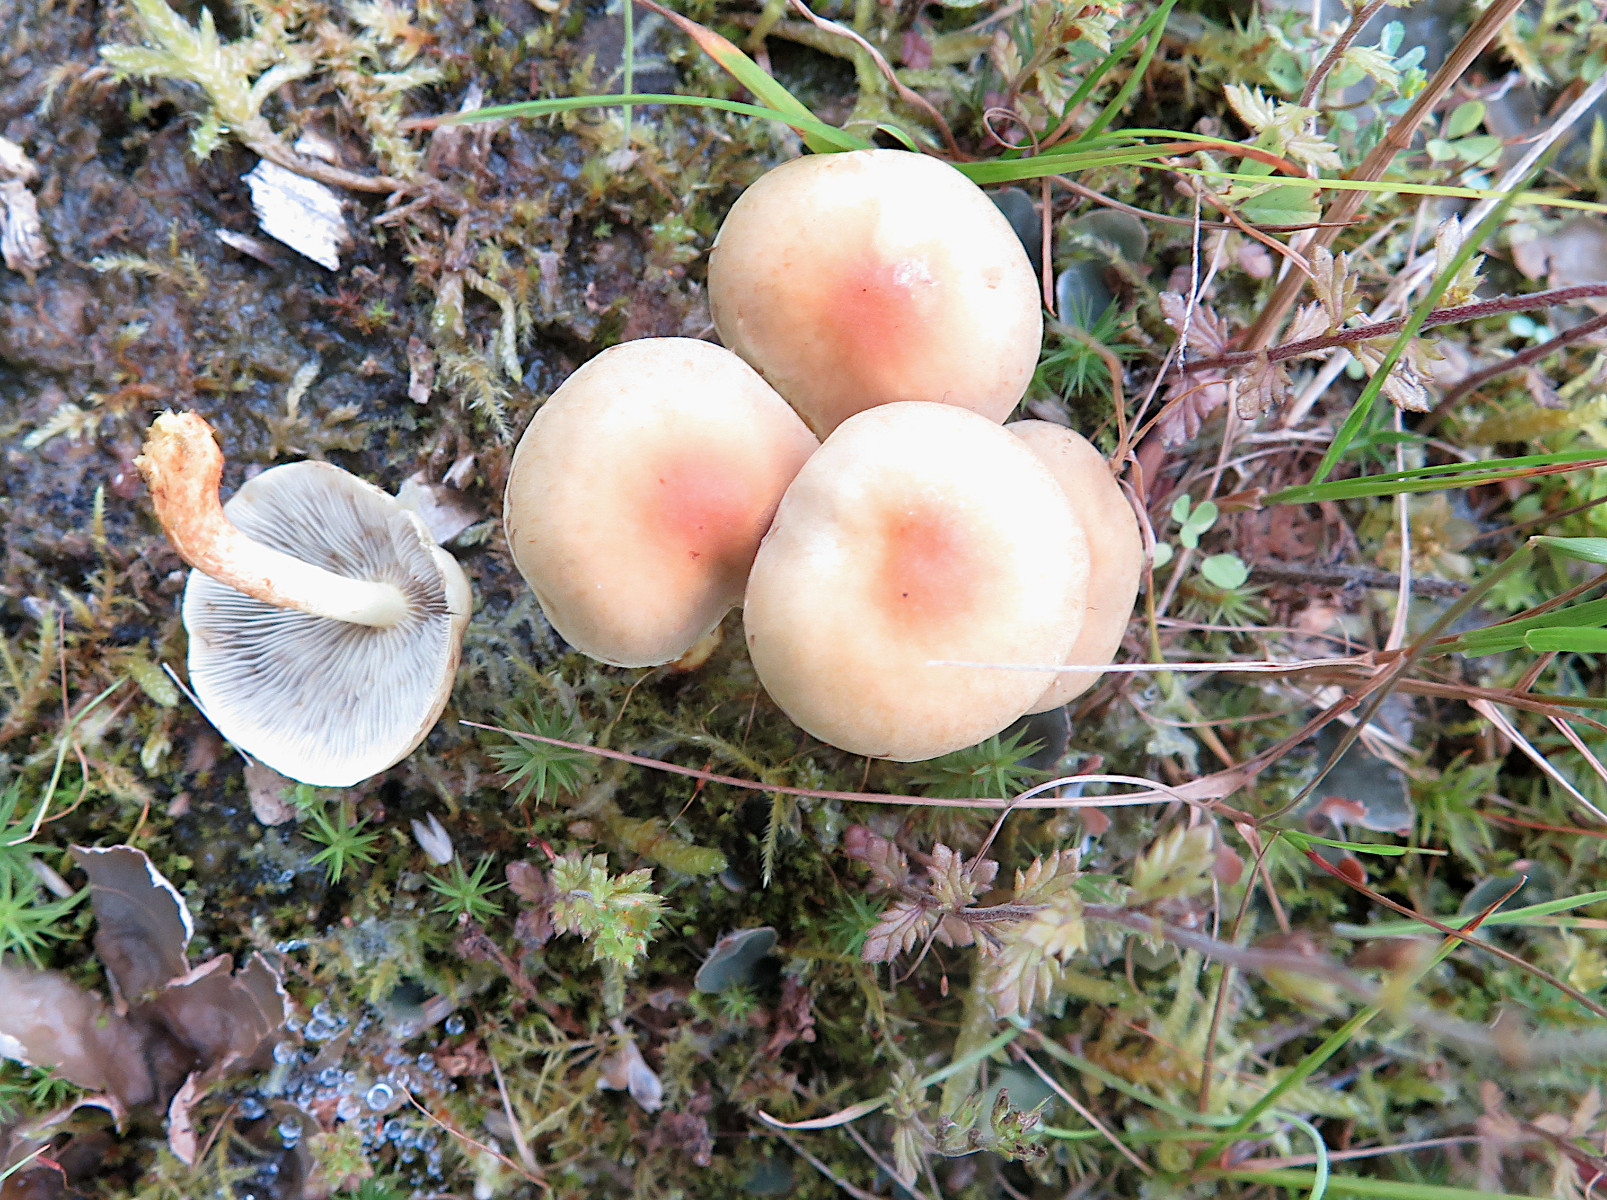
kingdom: Fungi
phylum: Basidiomycota
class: Agaricomycetes
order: Agaricales
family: Strophariaceae
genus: Hypholoma
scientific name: Hypholoma fasciculare
